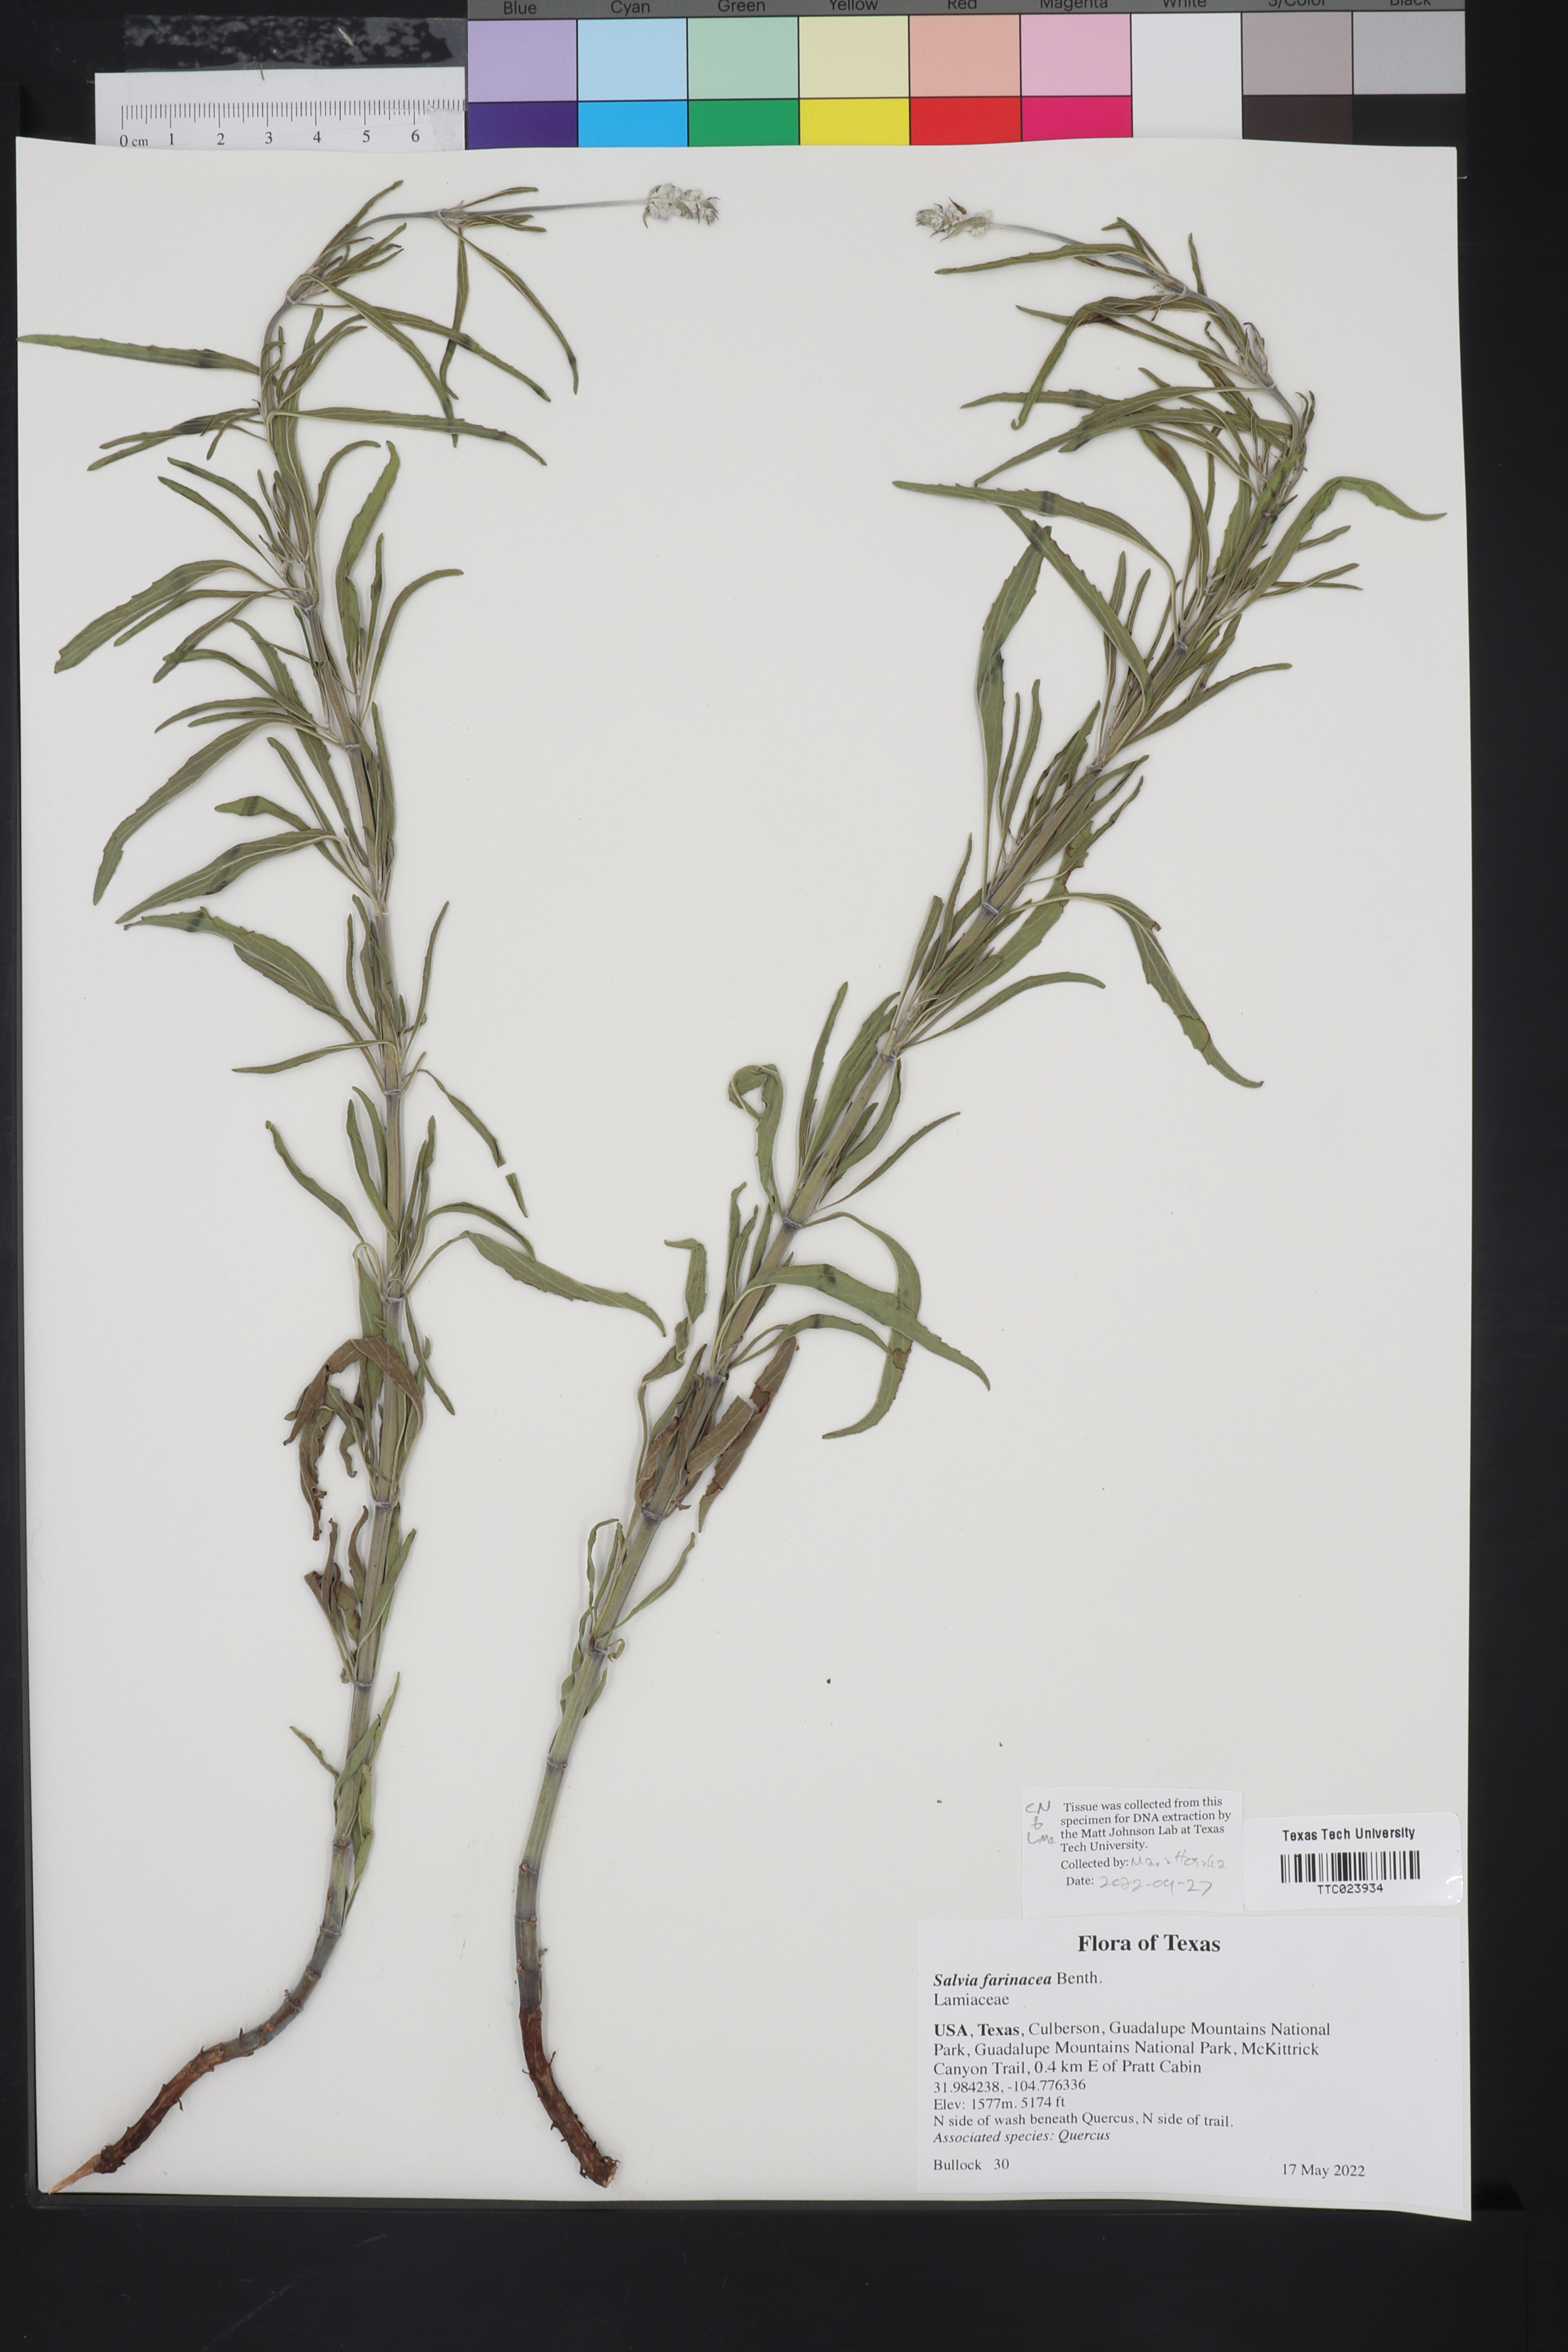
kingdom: Plantae
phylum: Tracheophyta
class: Magnoliopsida
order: Lamiales
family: Lamiaceae
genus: Salvia
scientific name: Salvia farinacea
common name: Mealy sage
